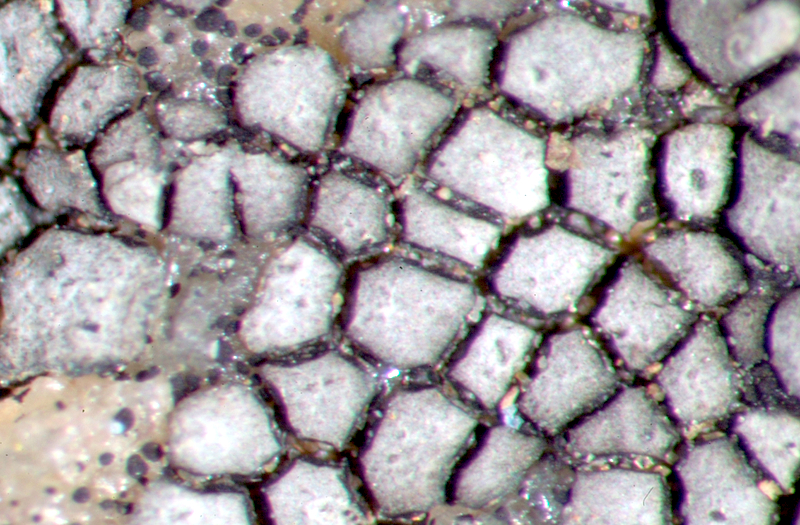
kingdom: Fungi
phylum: Ascomycota
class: Lecanoromycetes
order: Caliciales
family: Physciaceae
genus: Rinodina
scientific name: Rinodina
